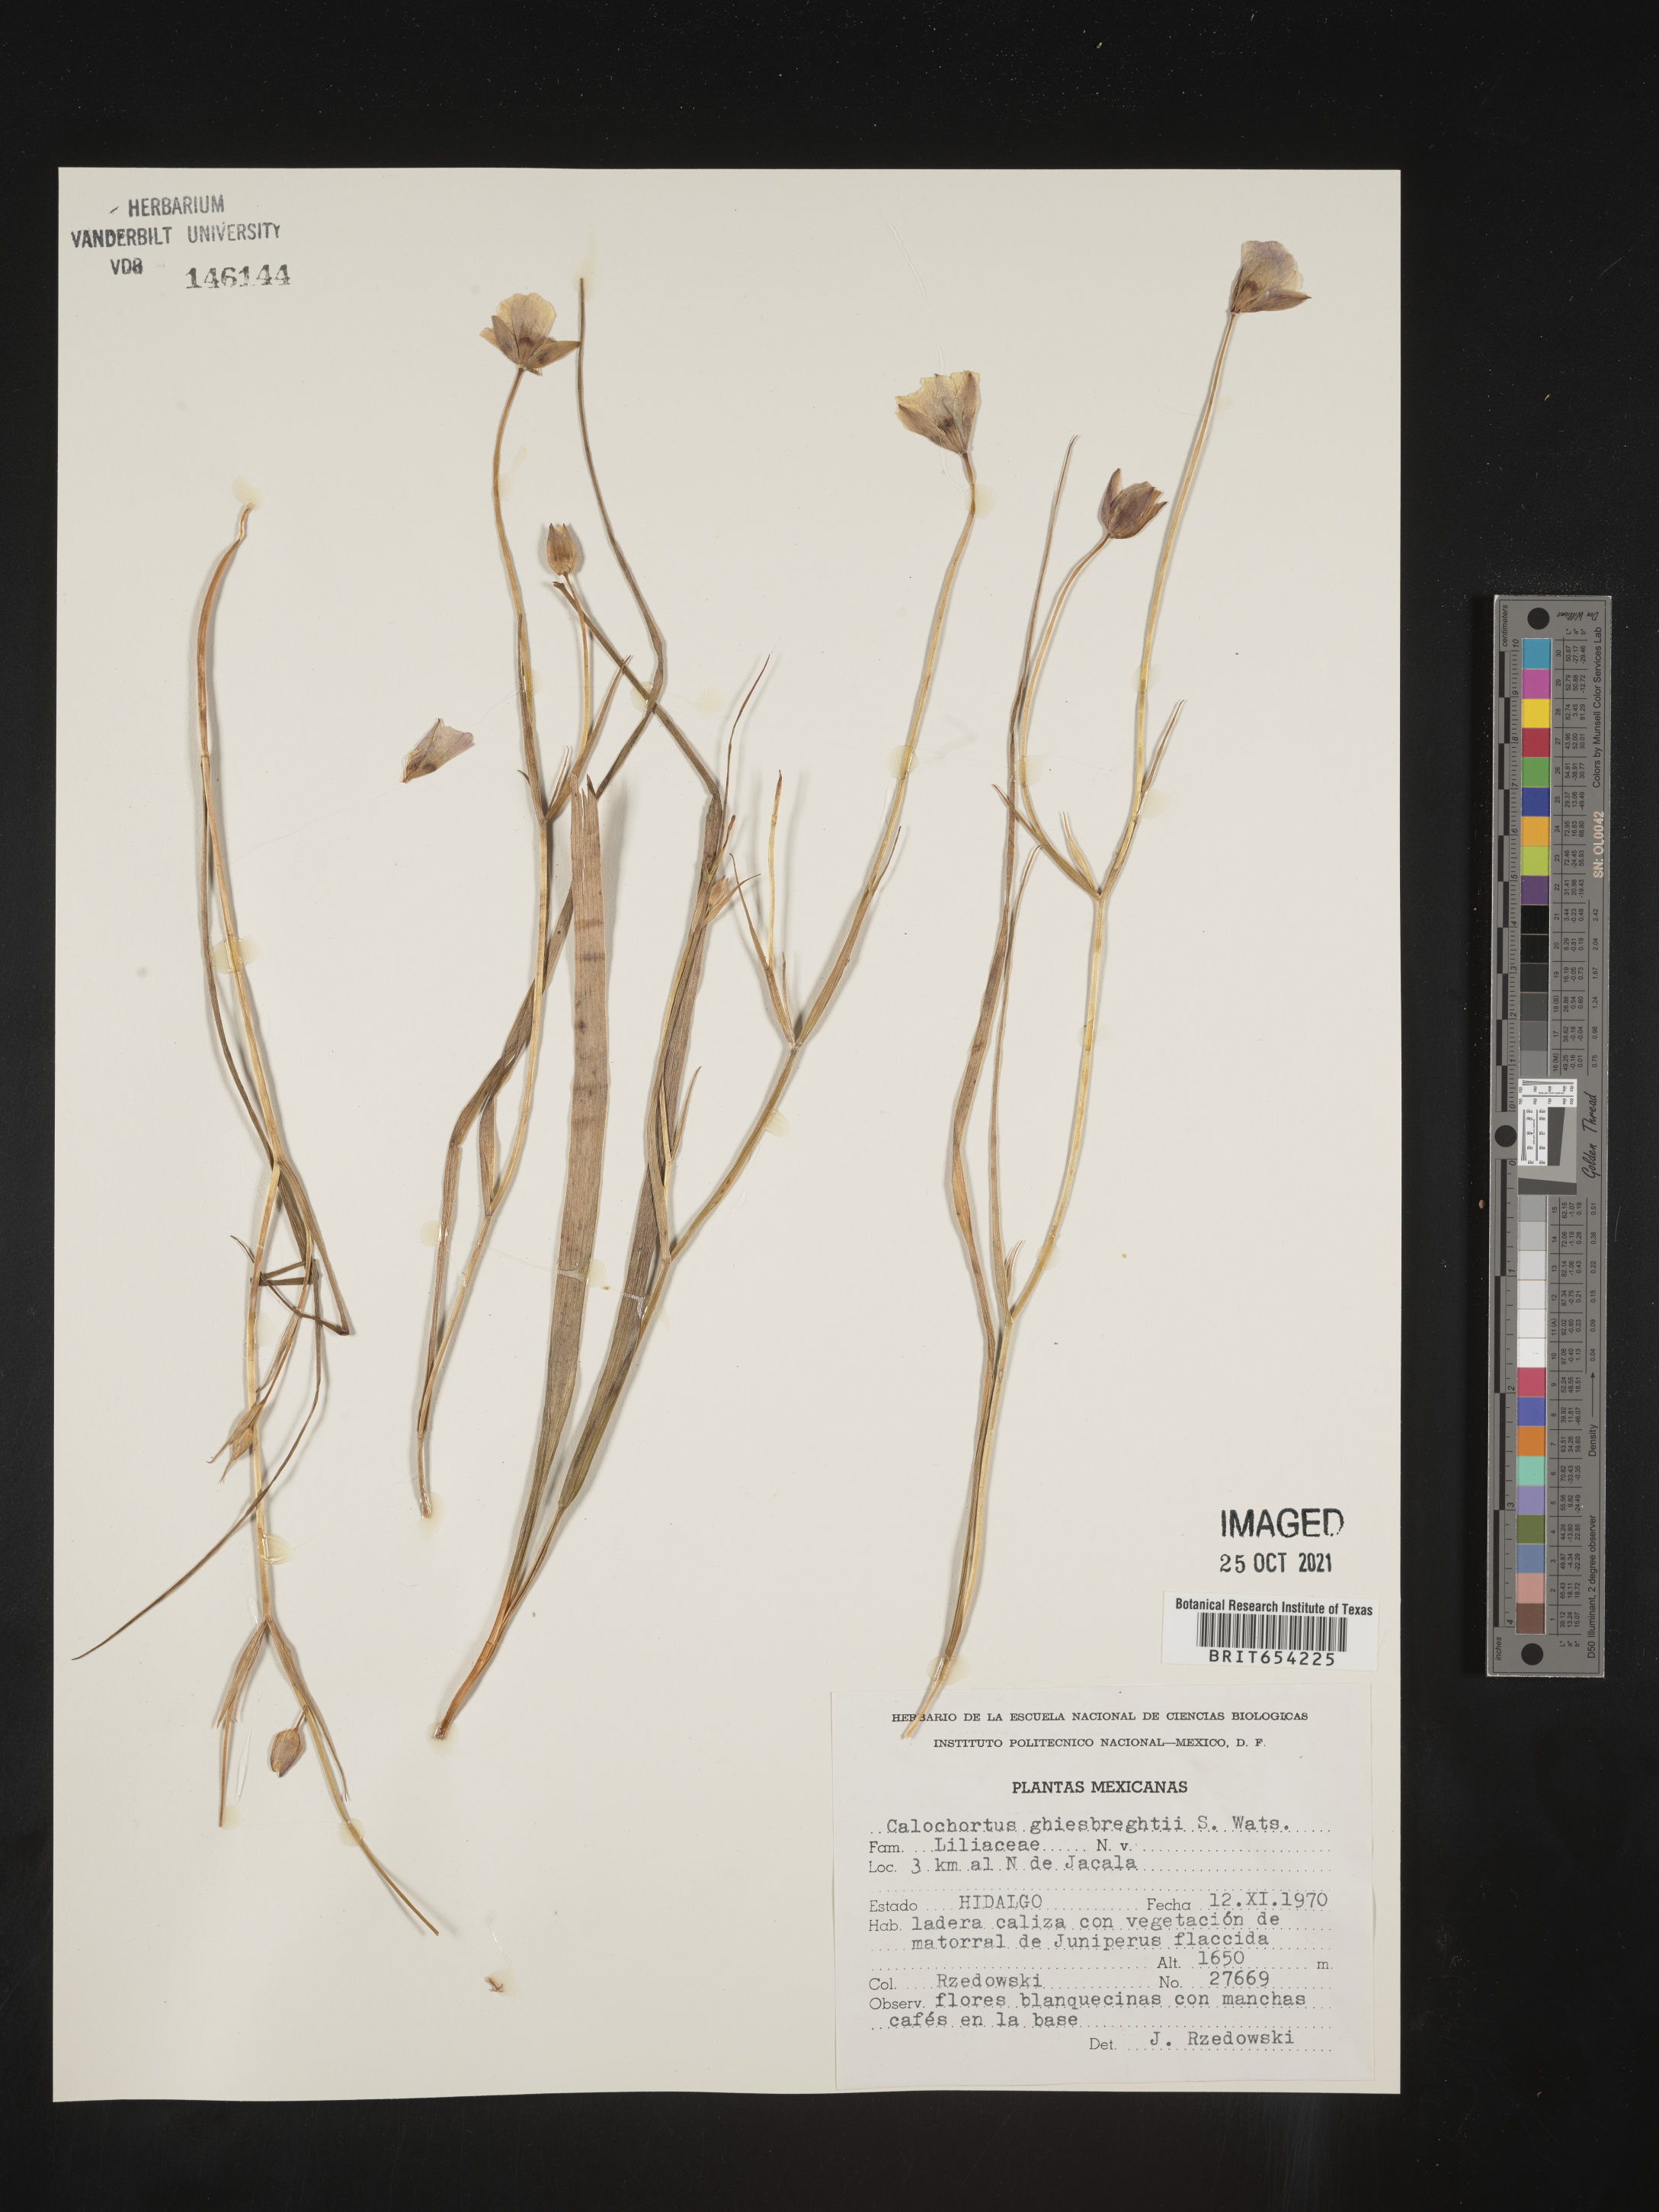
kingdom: Plantae
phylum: Tracheophyta
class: Liliopsida
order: Liliales
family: Liliaceae
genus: Calochortus
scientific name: Calochortus
